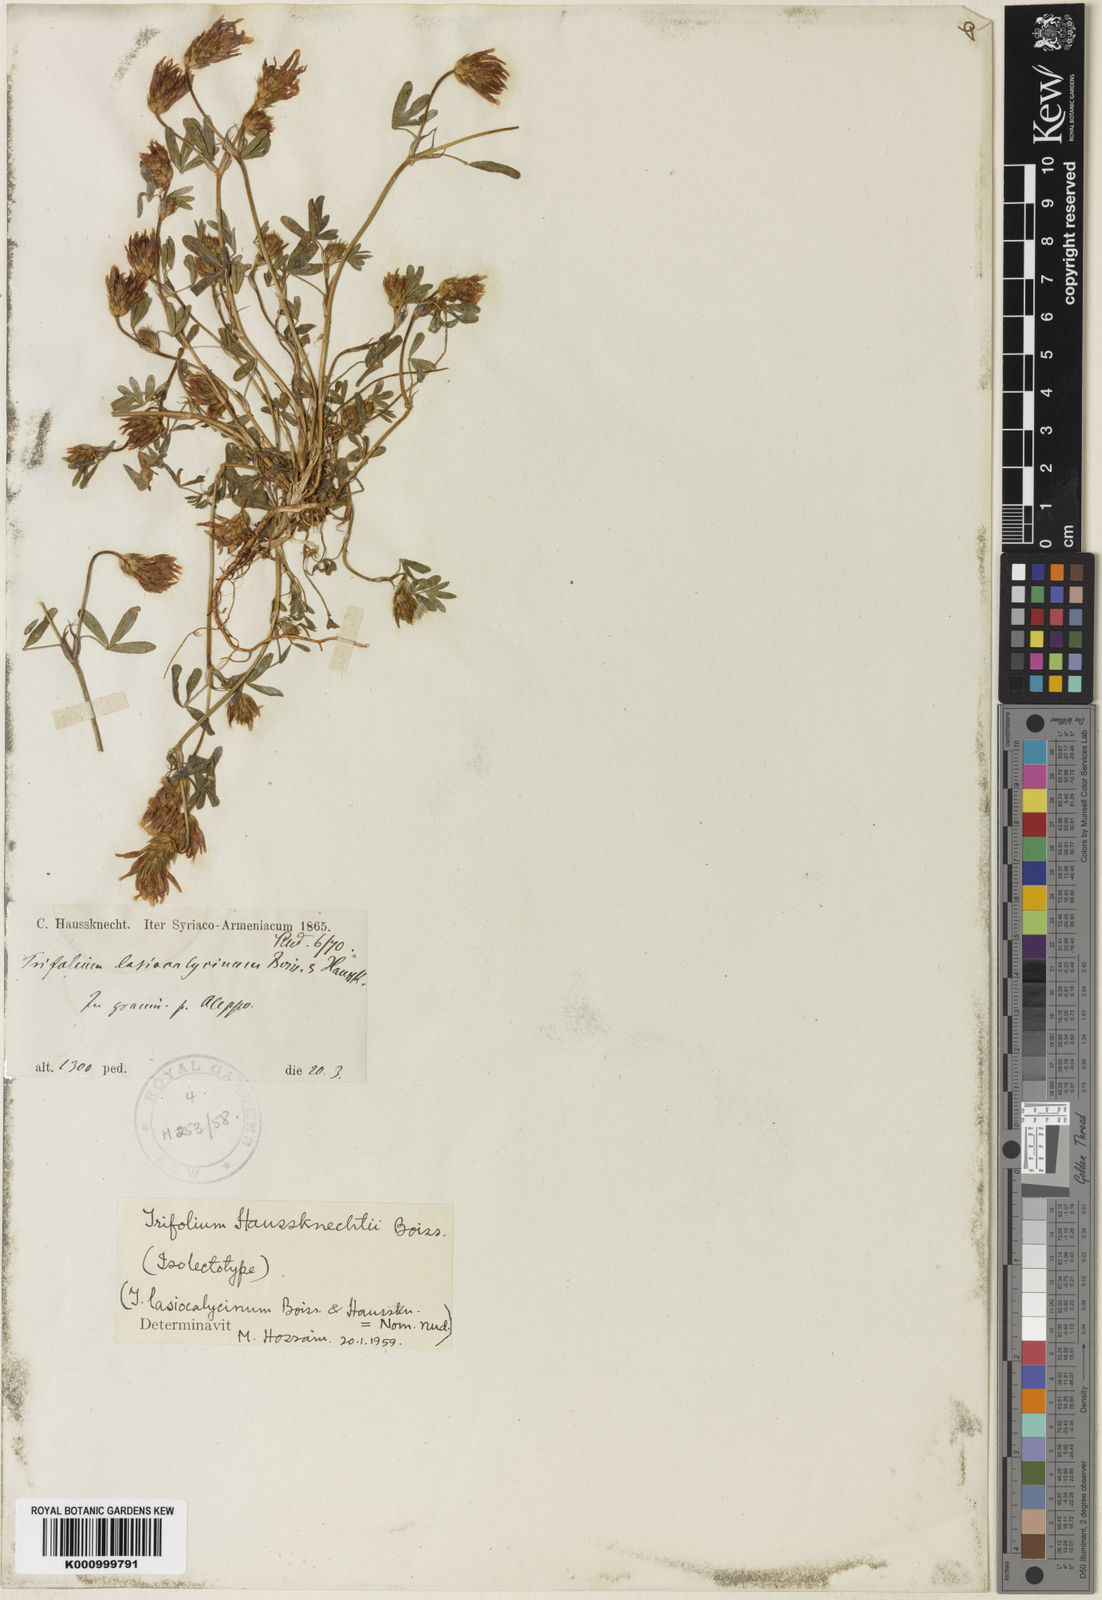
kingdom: Plantae
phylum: Tracheophyta
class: Magnoliopsida
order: Fabales
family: Fabaceae
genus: Trifolium
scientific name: Trifolium haussknechtii
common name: Haussknecht's clover
